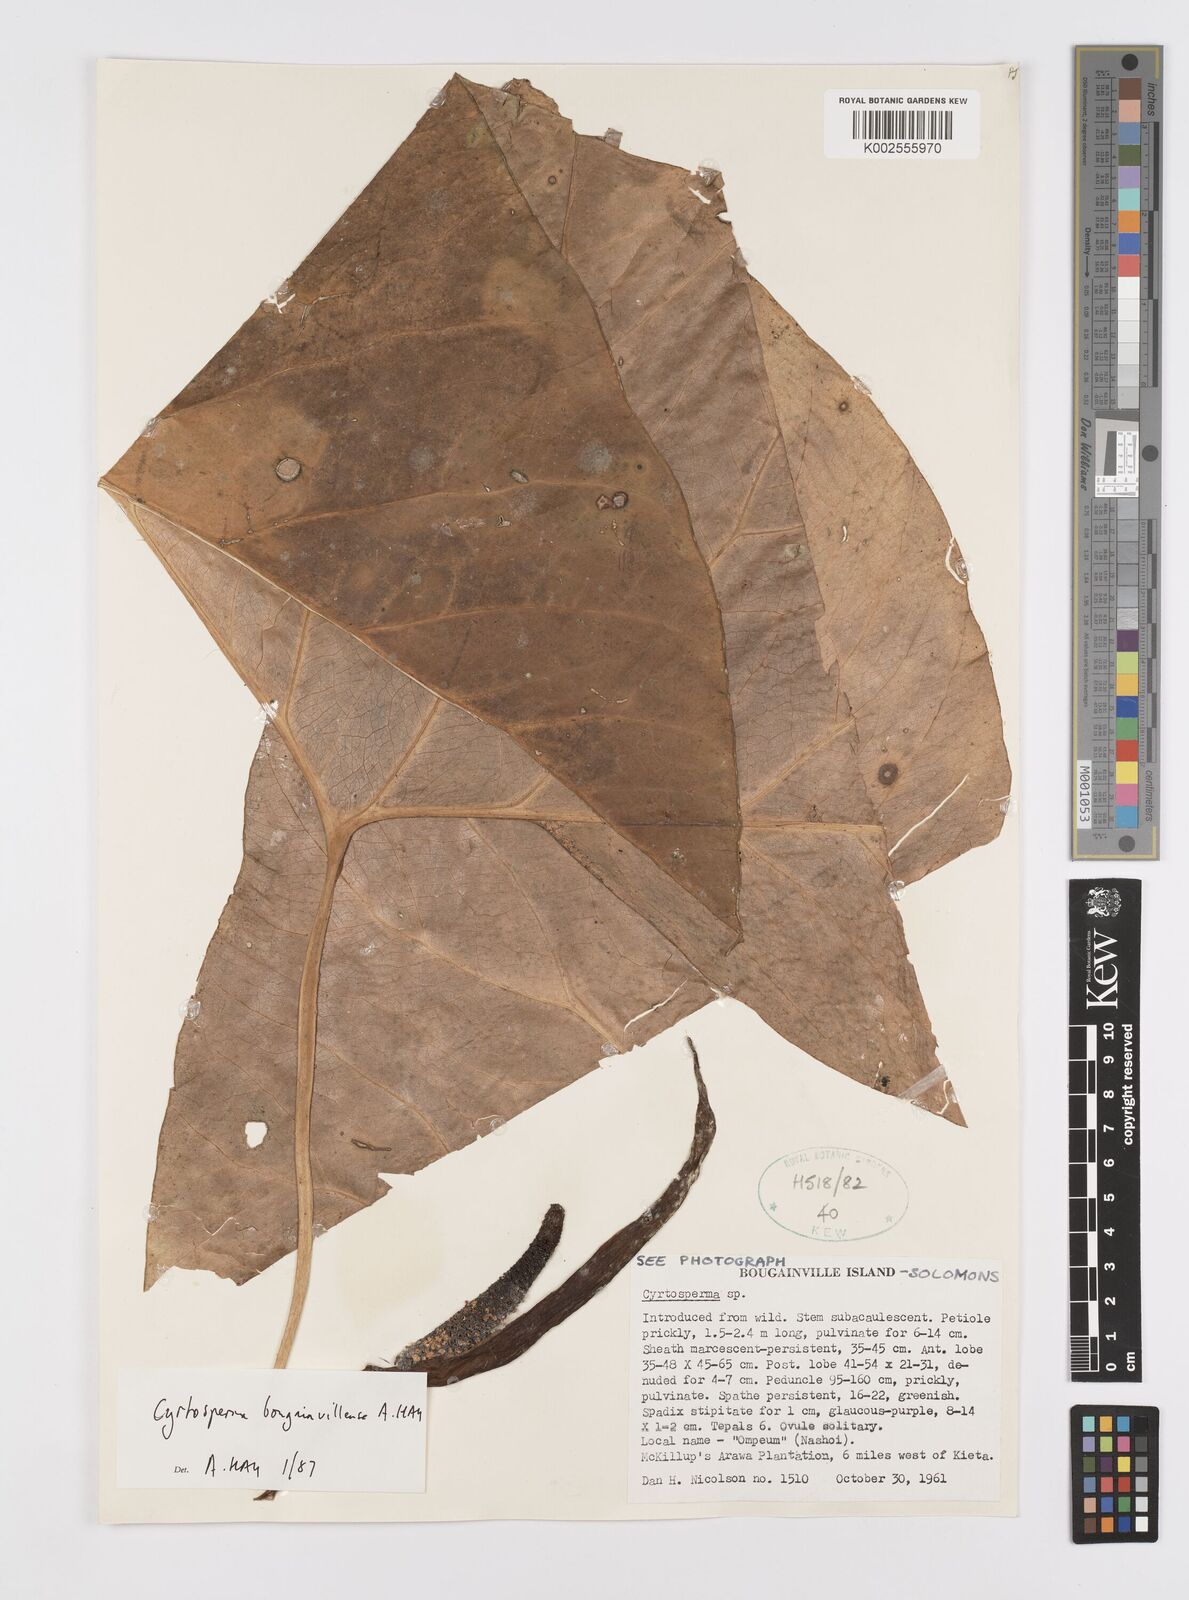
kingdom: Plantae
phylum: Tracheophyta
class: Liliopsida
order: Alismatales
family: Araceae
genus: Cyrtosperma
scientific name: Cyrtosperma bougainvillense
